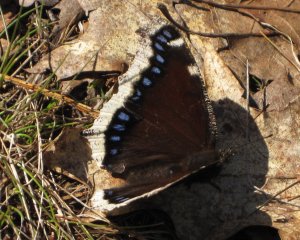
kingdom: Animalia
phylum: Arthropoda
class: Insecta
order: Lepidoptera
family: Nymphalidae
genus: Nymphalis
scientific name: Nymphalis antiopa
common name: Mourning Cloak
